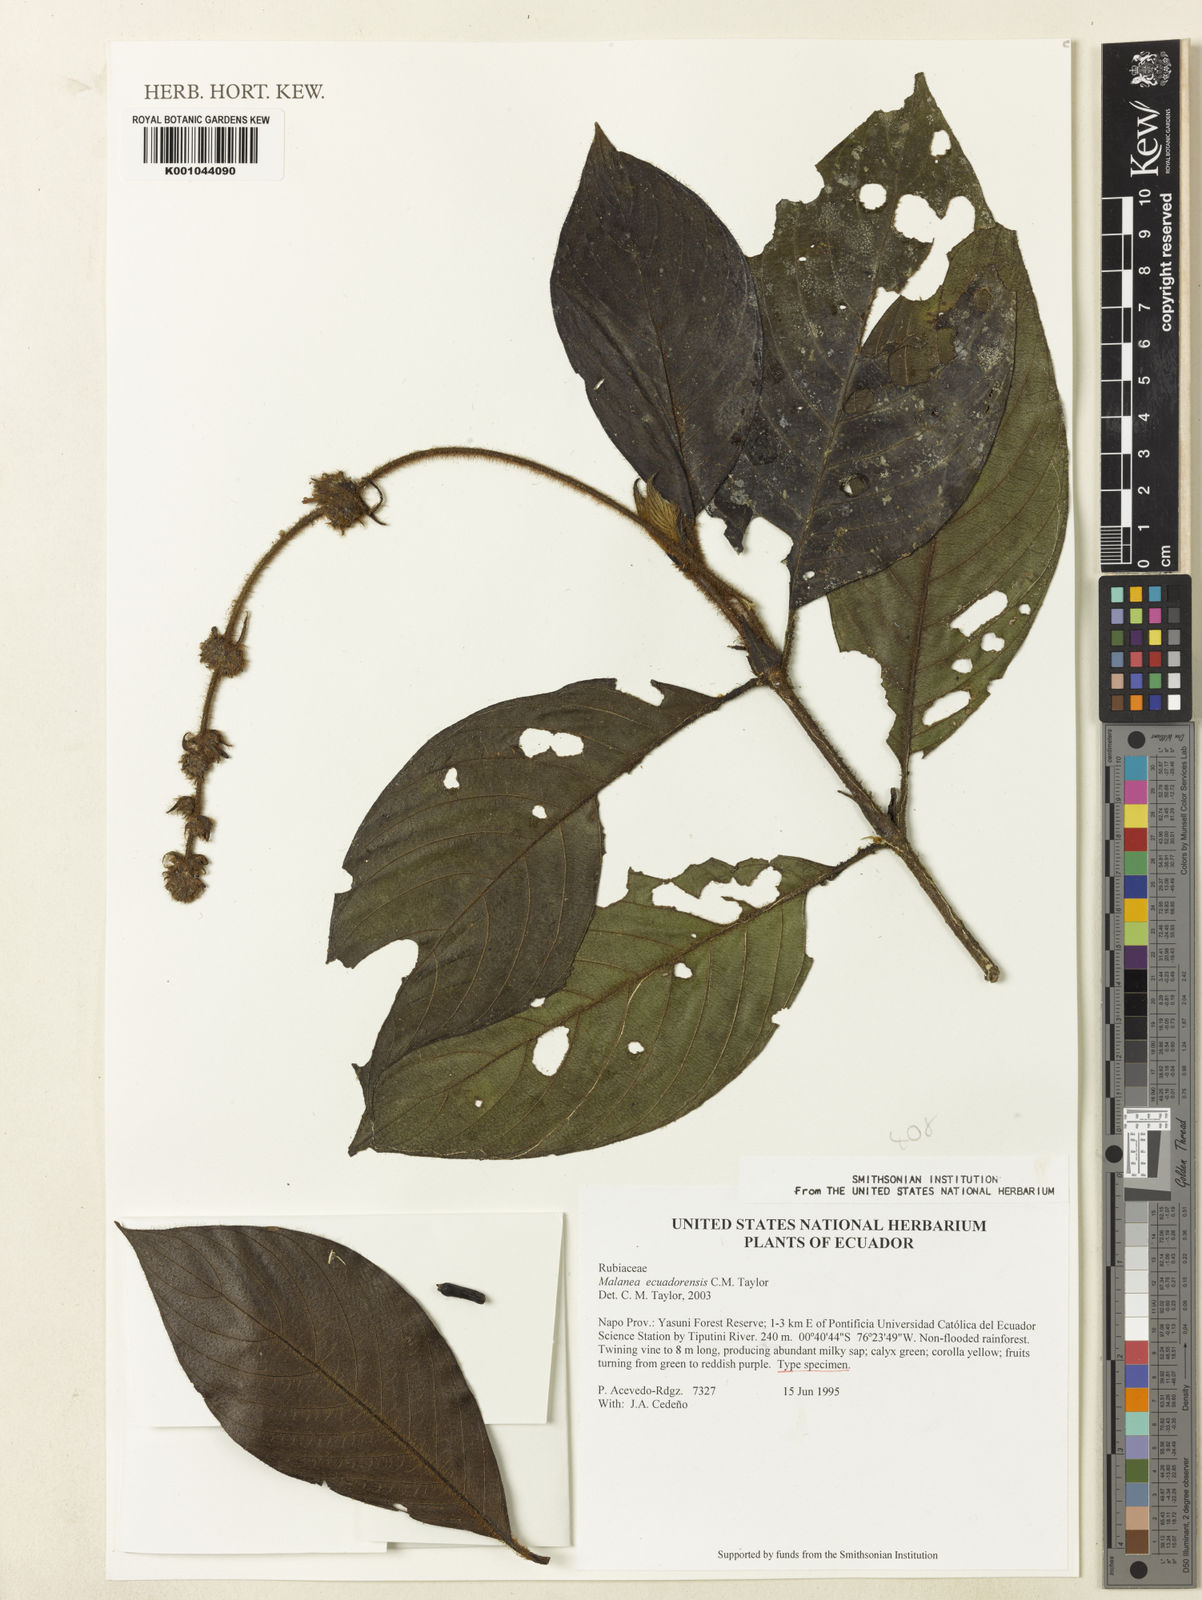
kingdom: Plantae
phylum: Tracheophyta
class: Magnoliopsida
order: Gentianales
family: Rubiaceae
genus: Malanea
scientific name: Malanea ecuadorensis
